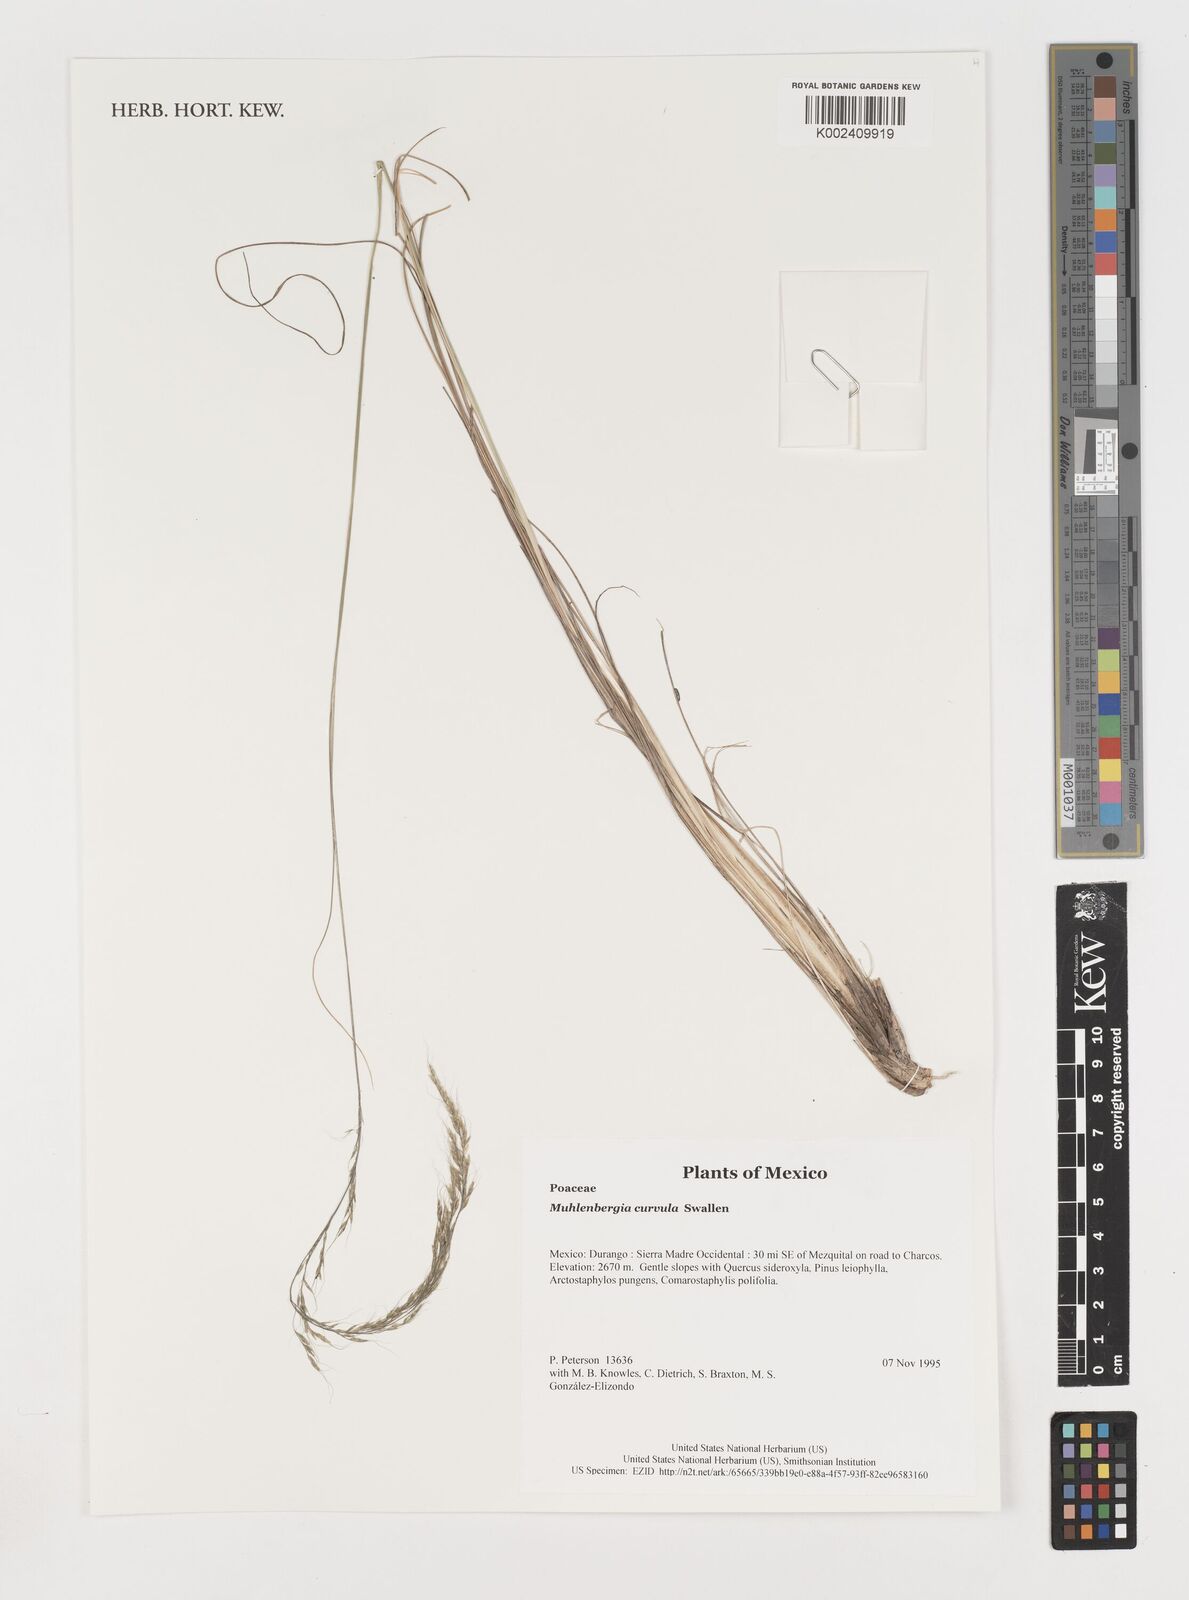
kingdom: Plantae
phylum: Tracheophyta
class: Liliopsida
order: Poales
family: Poaceae
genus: Muhlenbergia
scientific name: Muhlenbergia virescens
